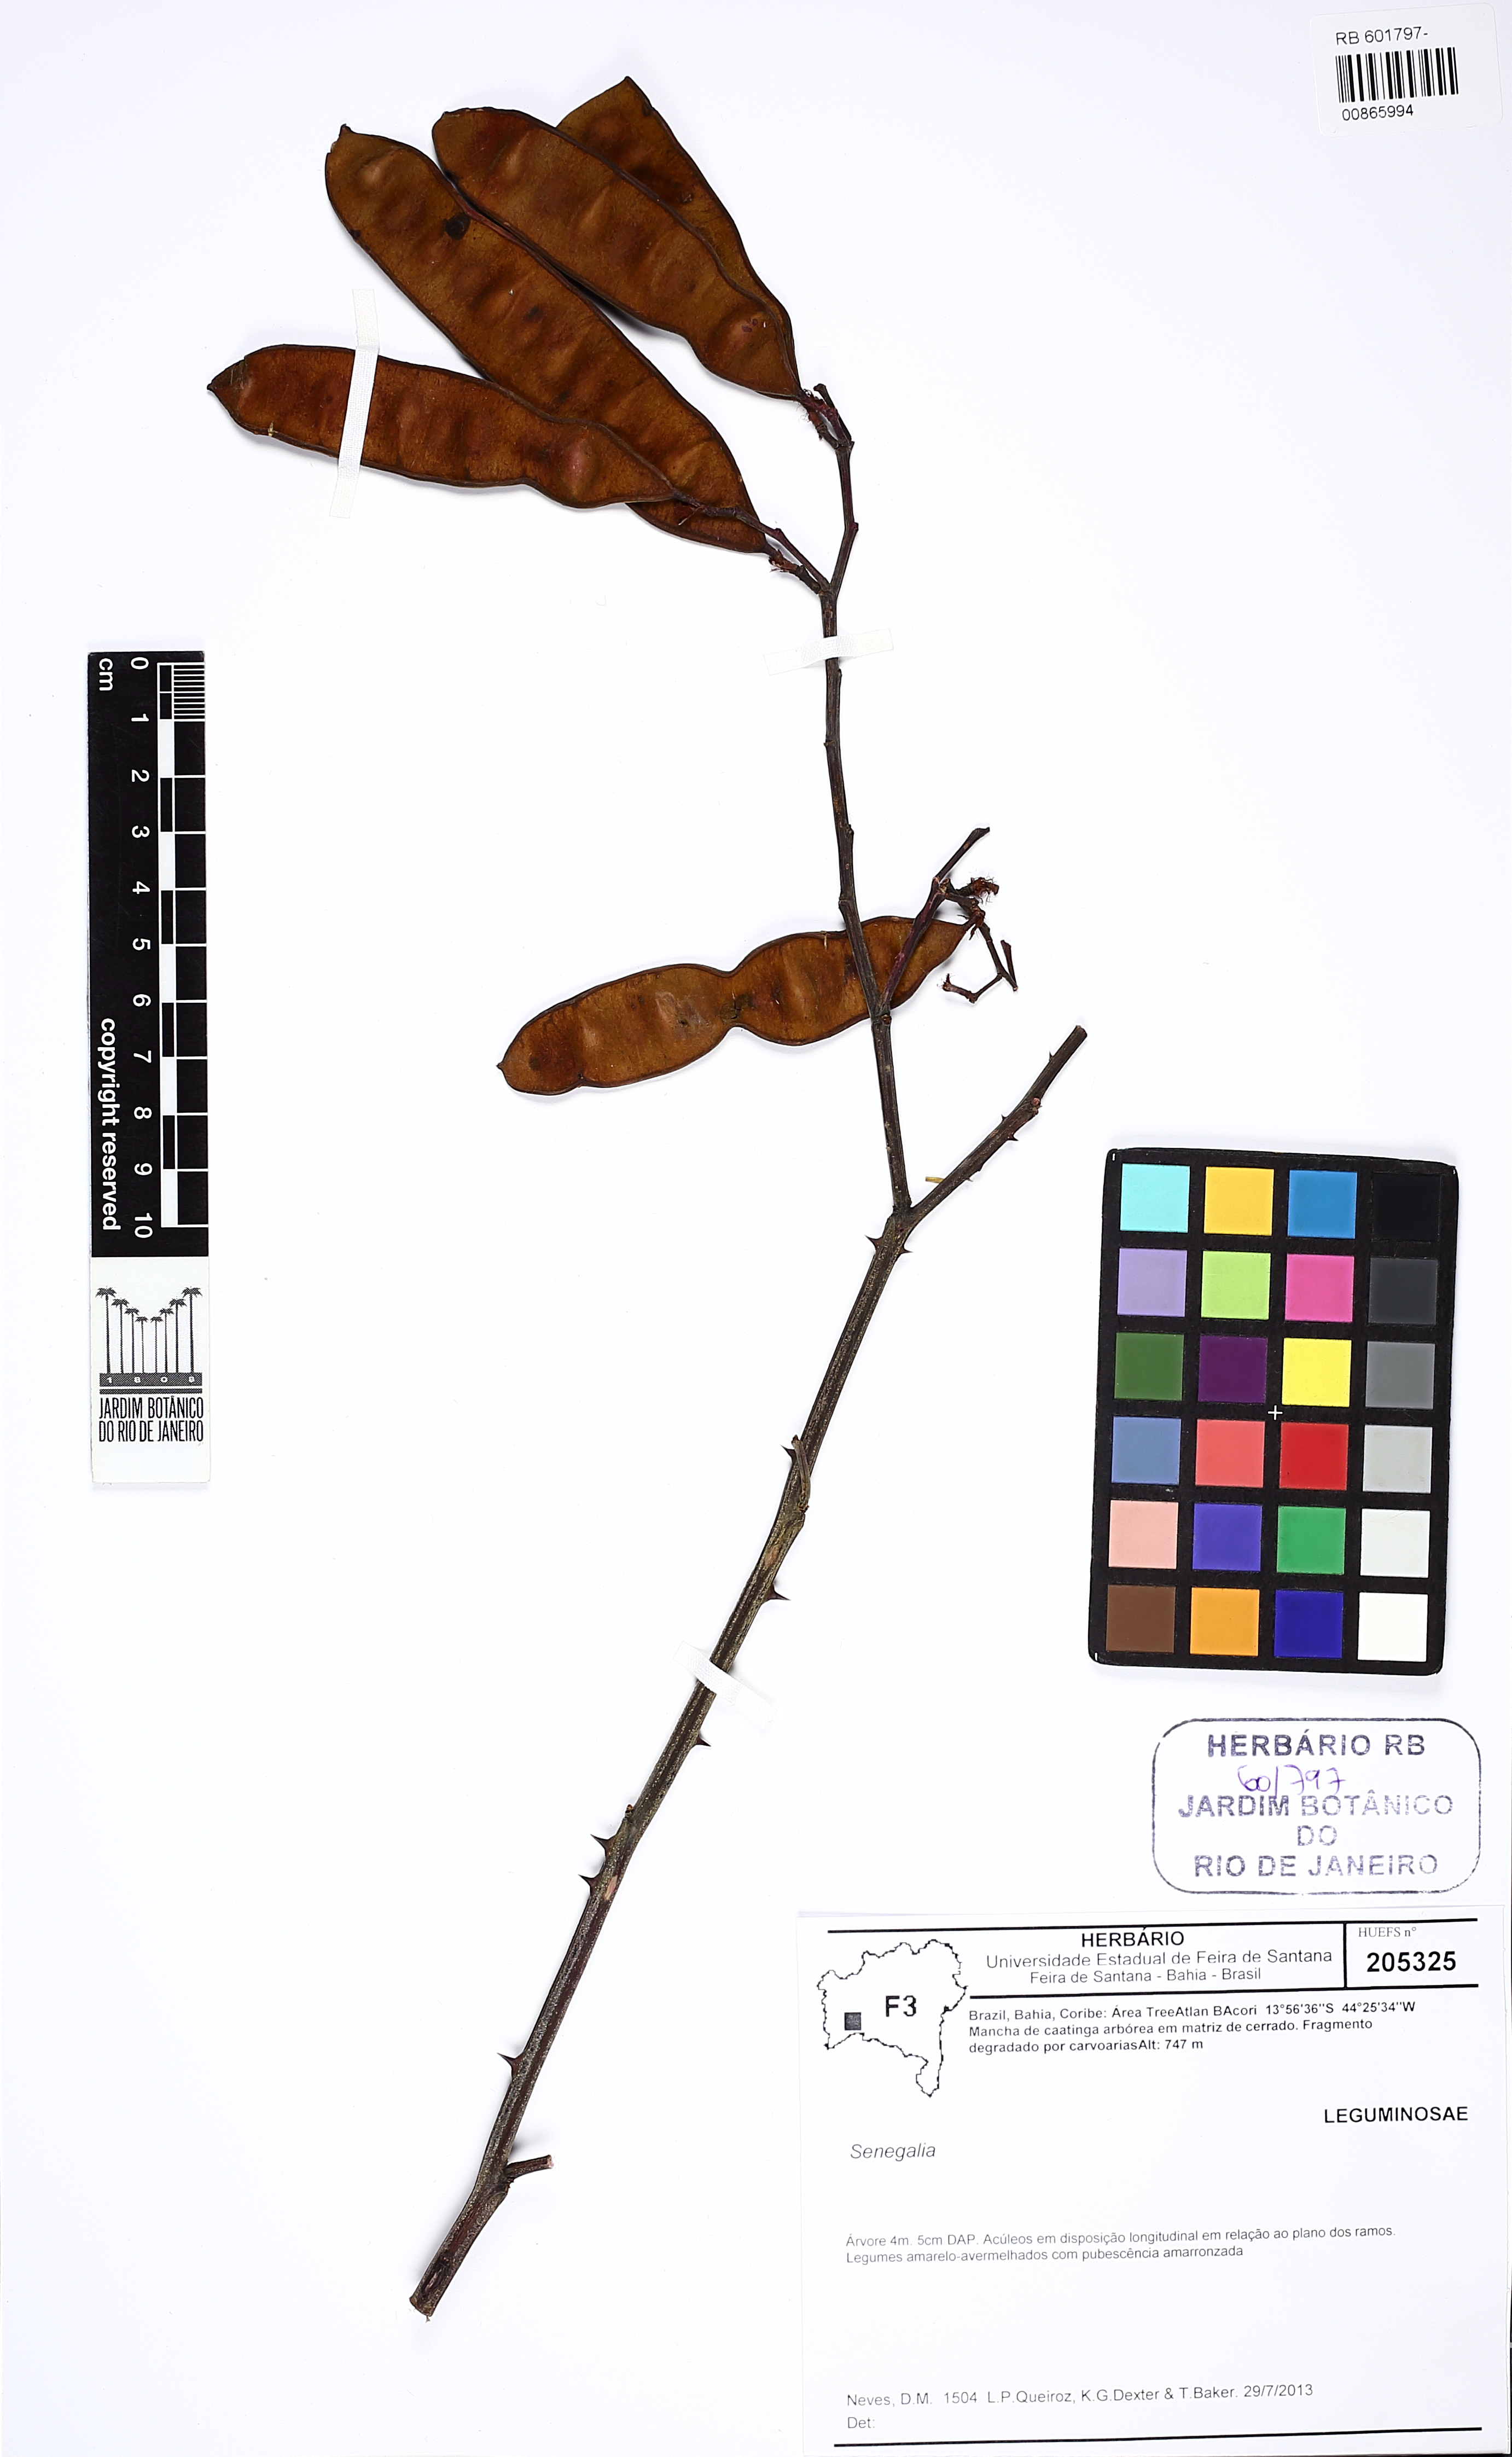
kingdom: Plantae
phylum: Tracheophyta
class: Magnoliopsida
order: Fabales
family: Fabaceae
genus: Senegalia
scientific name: Senegalia martii
